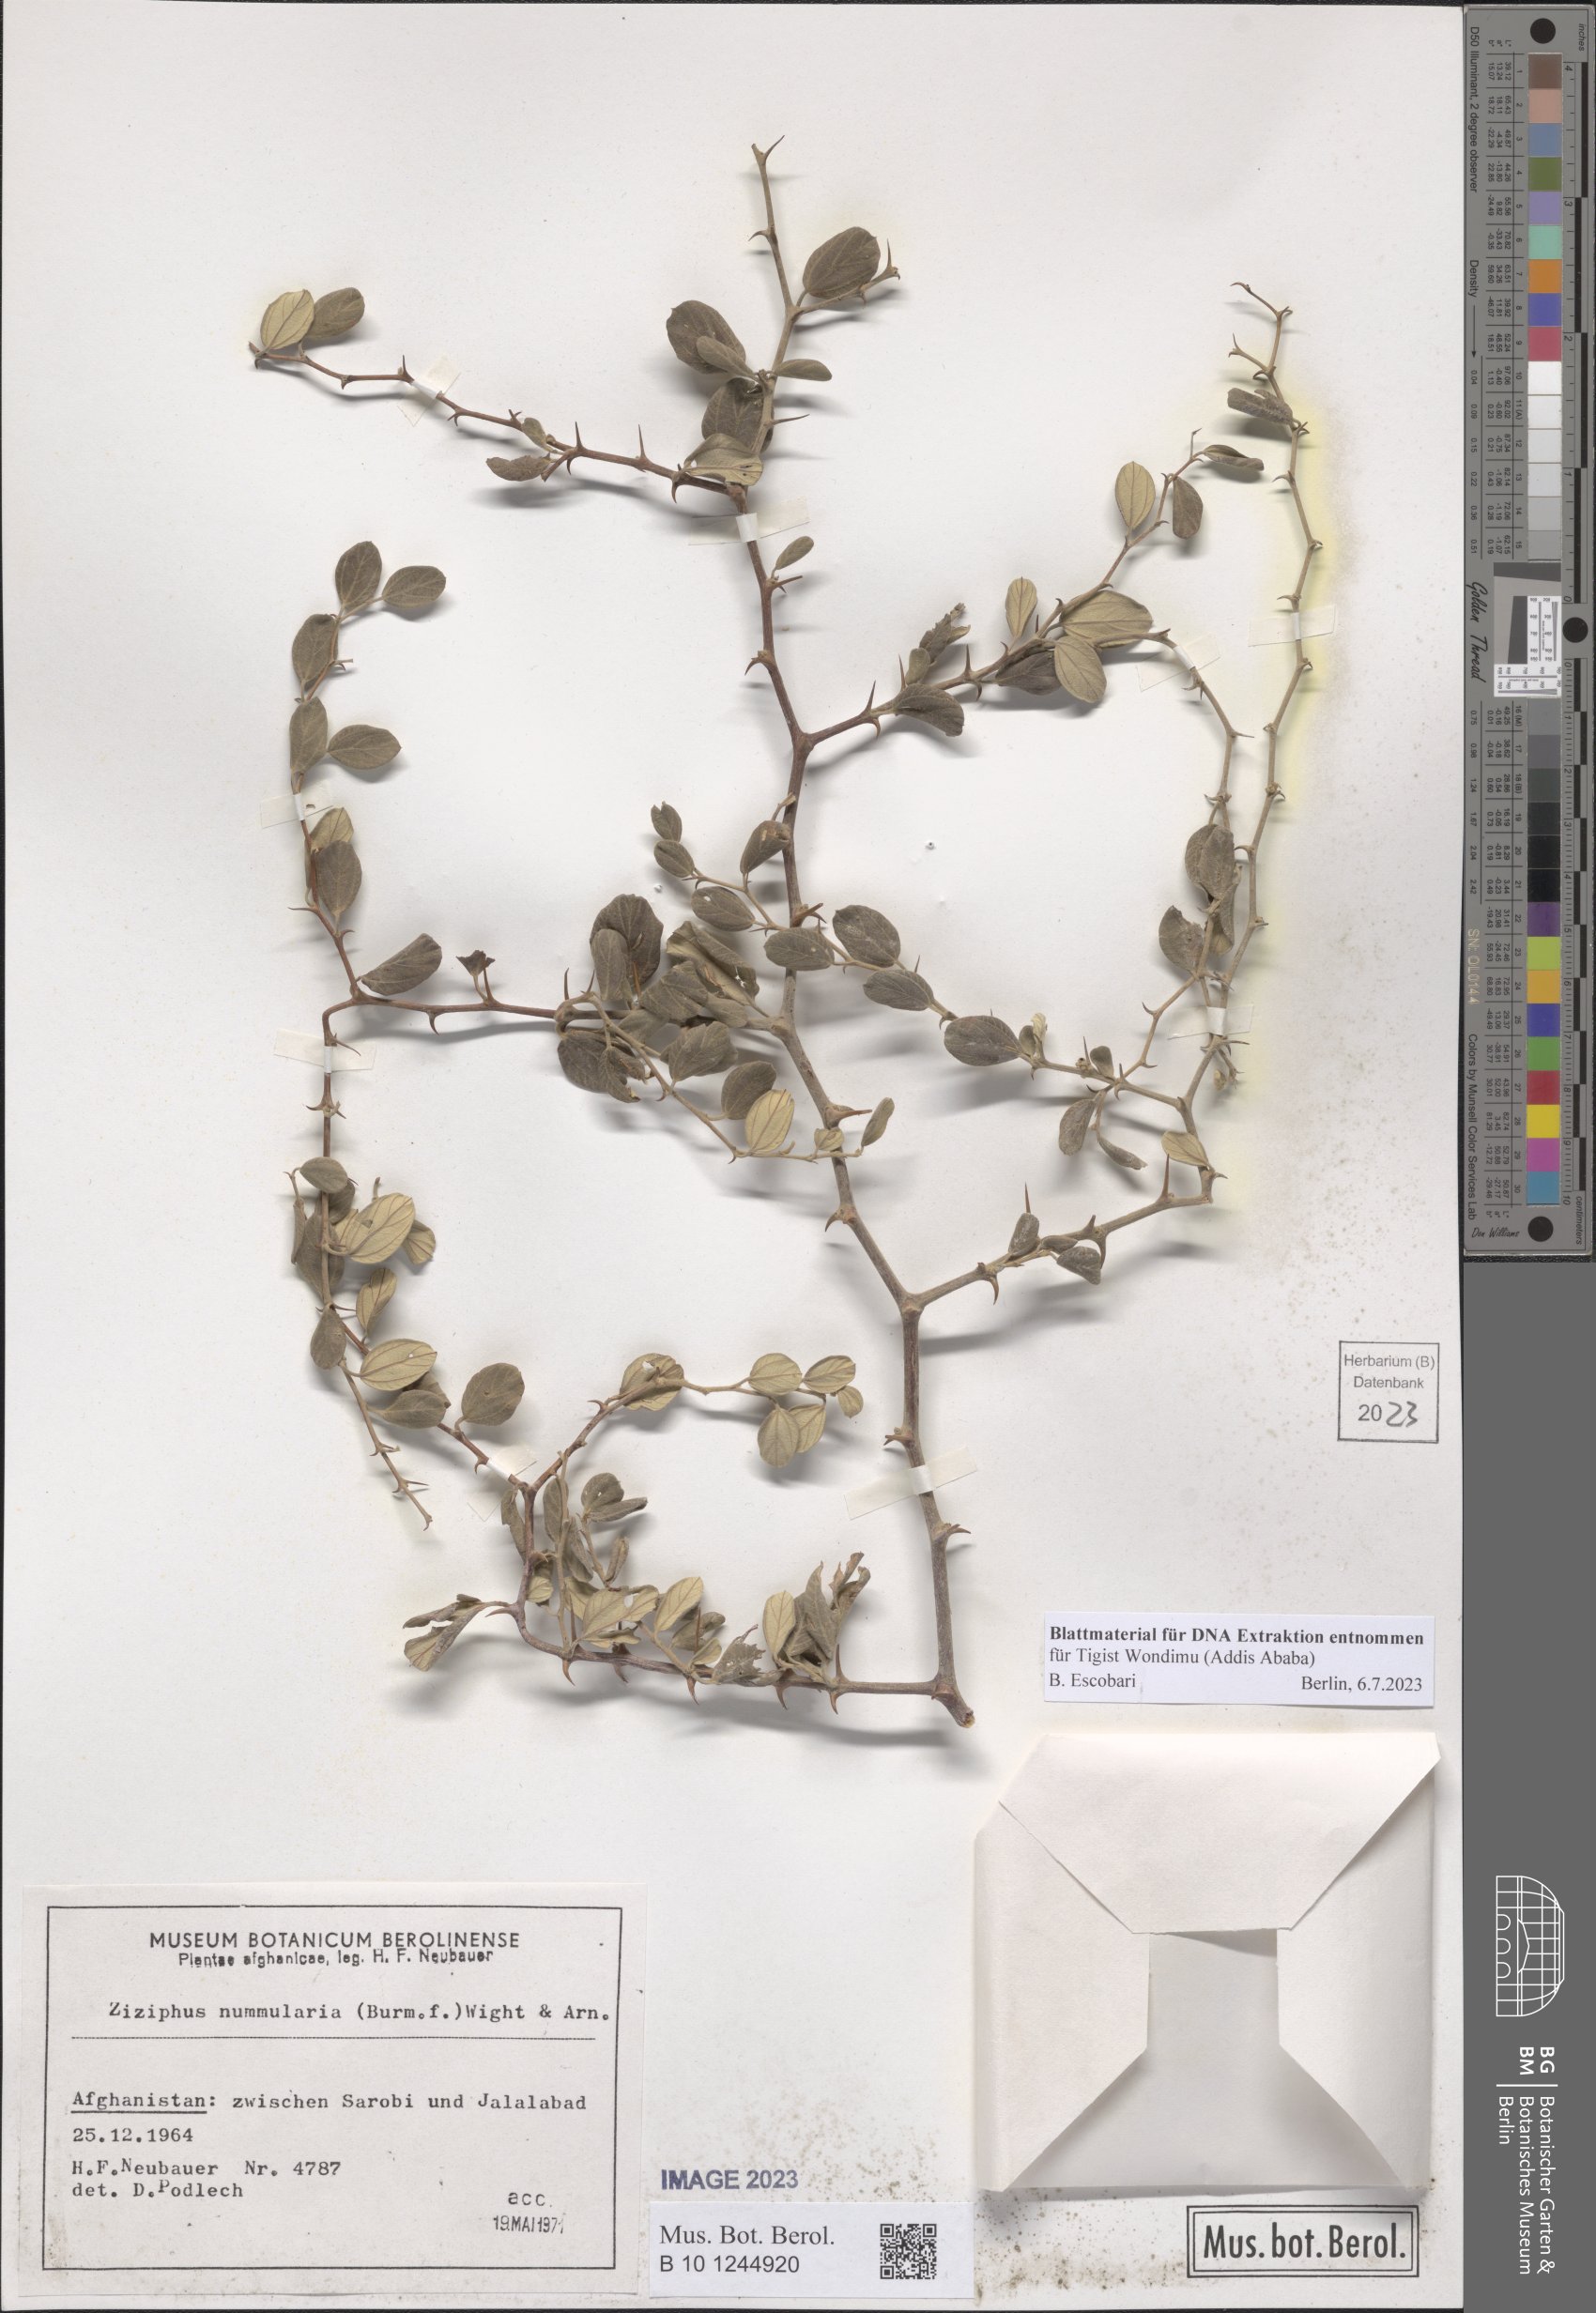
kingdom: Plantae
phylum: Tracheophyta
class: Magnoliopsida
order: Rosales
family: Rhamnaceae
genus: Ziziphus
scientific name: Ziziphus nummularia
